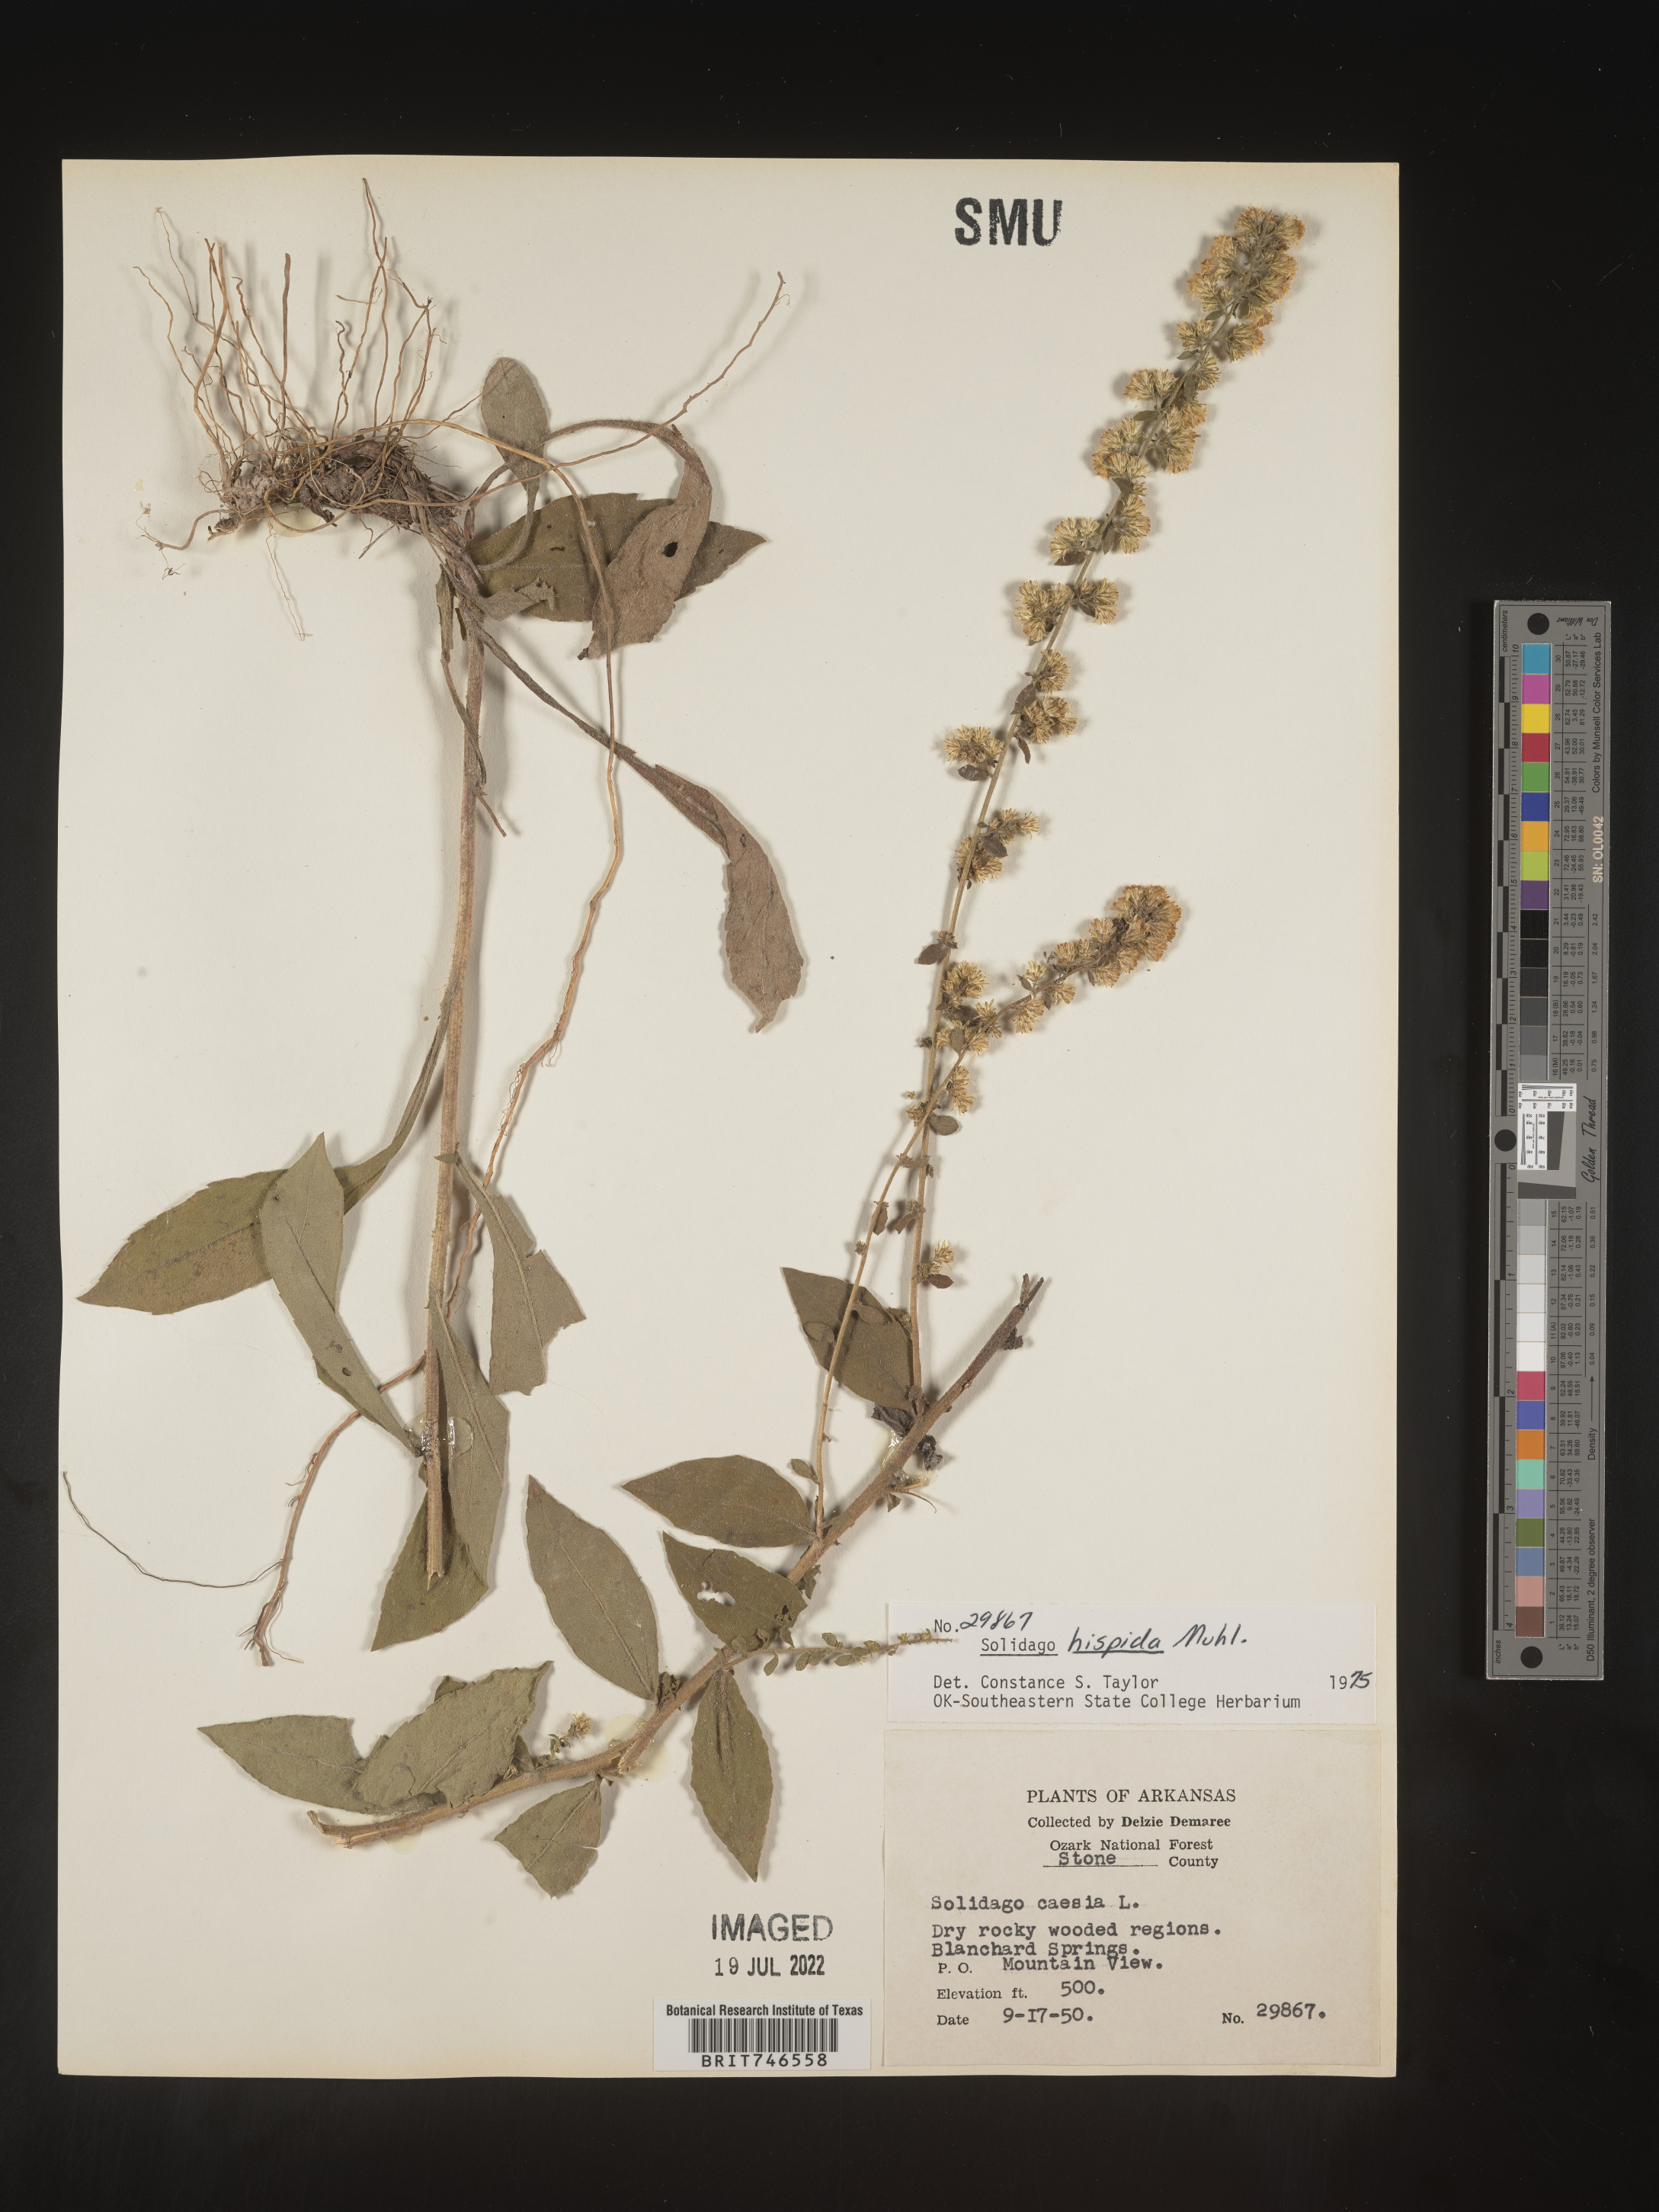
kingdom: Plantae
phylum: Tracheophyta
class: Magnoliopsida
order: Asterales
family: Asteraceae
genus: Solidago
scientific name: Solidago hispida
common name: Hairy goldenrod
